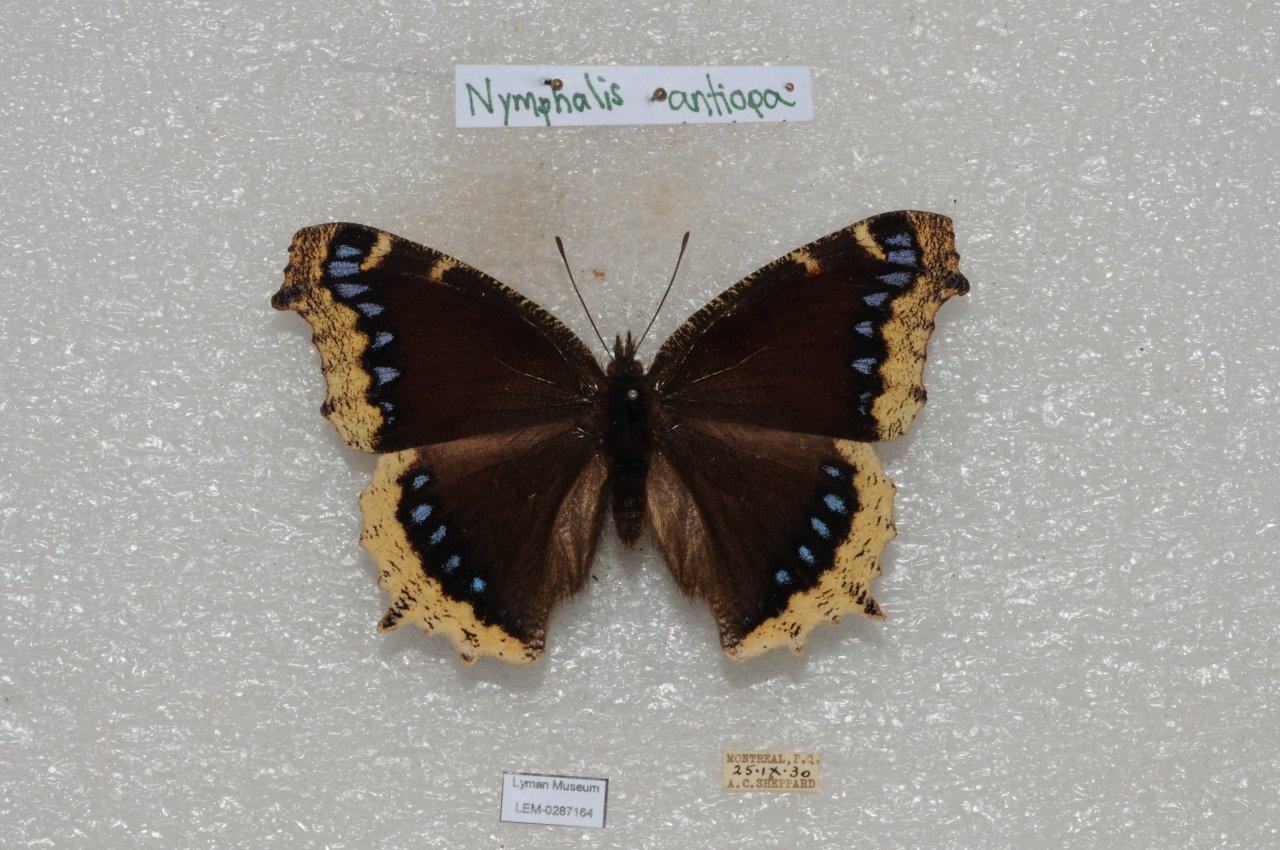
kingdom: Animalia
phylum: Arthropoda
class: Insecta
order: Lepidoptera
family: Nymphalidae
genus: Nymphalis
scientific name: Nymphalis antiopa
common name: Mourning Cloak
